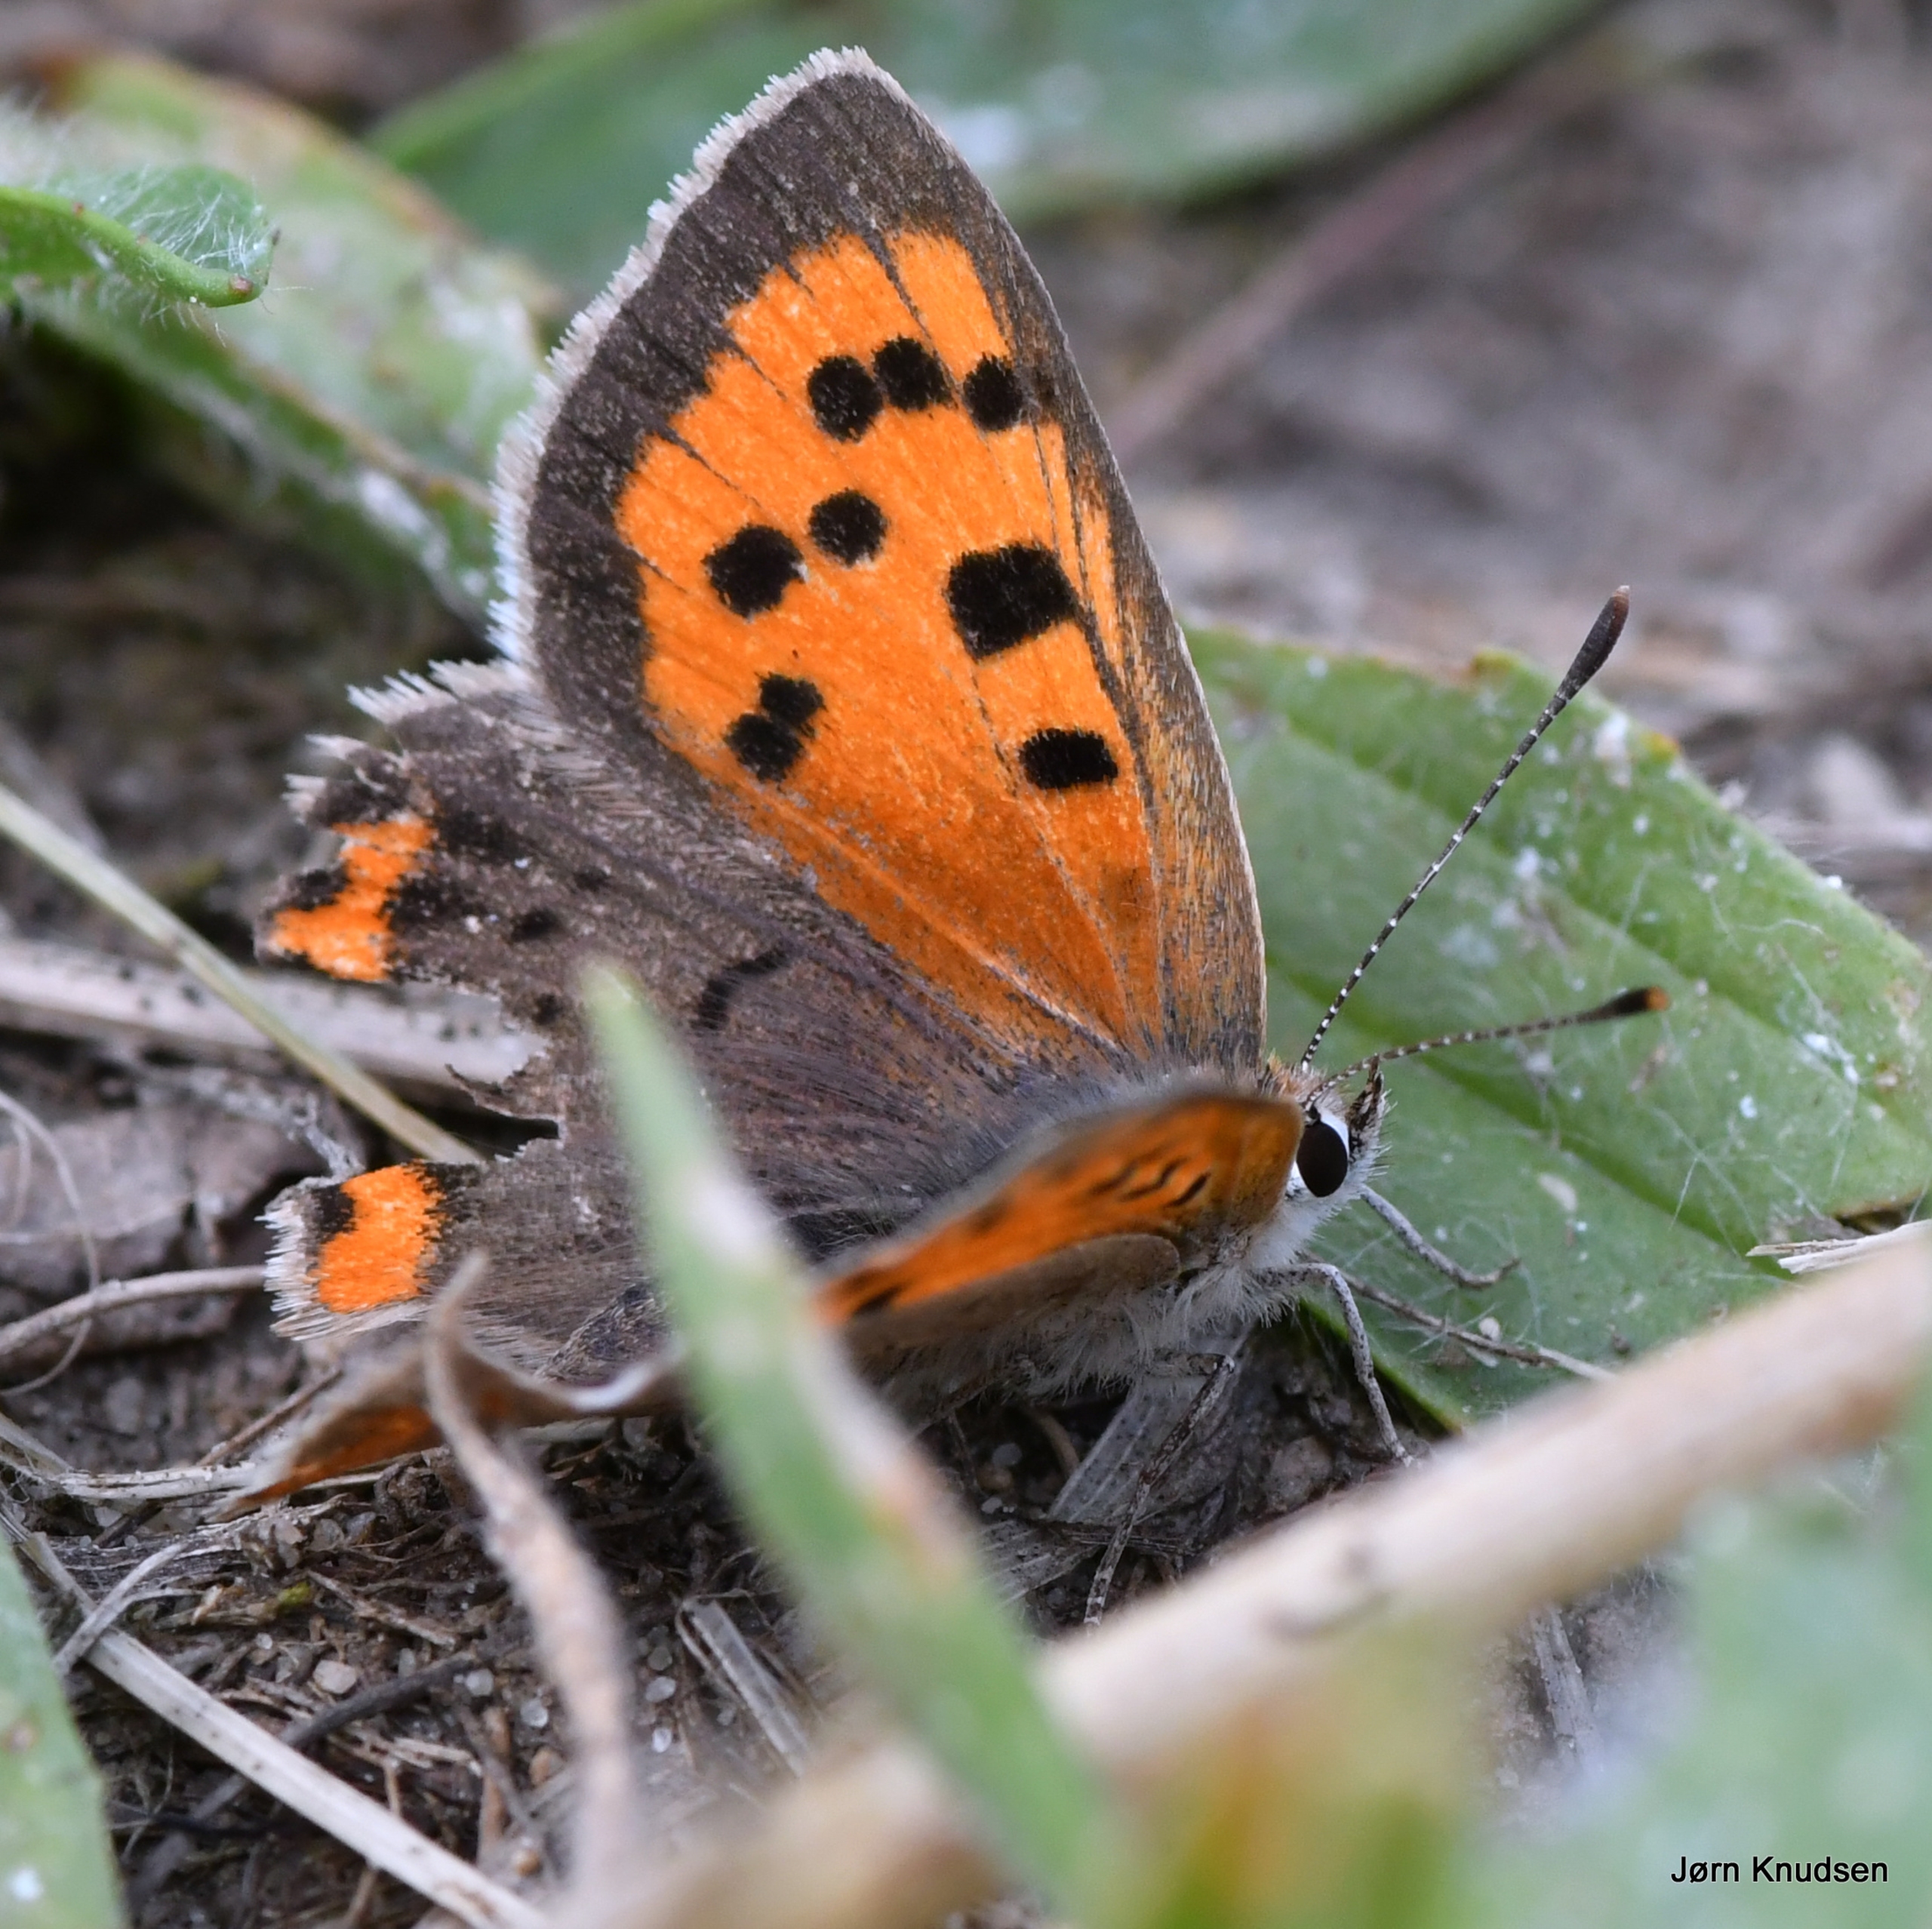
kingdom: Animalia
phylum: Arthropoda
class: Insecta
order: Lepidoptera
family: Lycaenidae
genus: Lycaena
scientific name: Lycaena phlaeas
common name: Lille ildfugl
